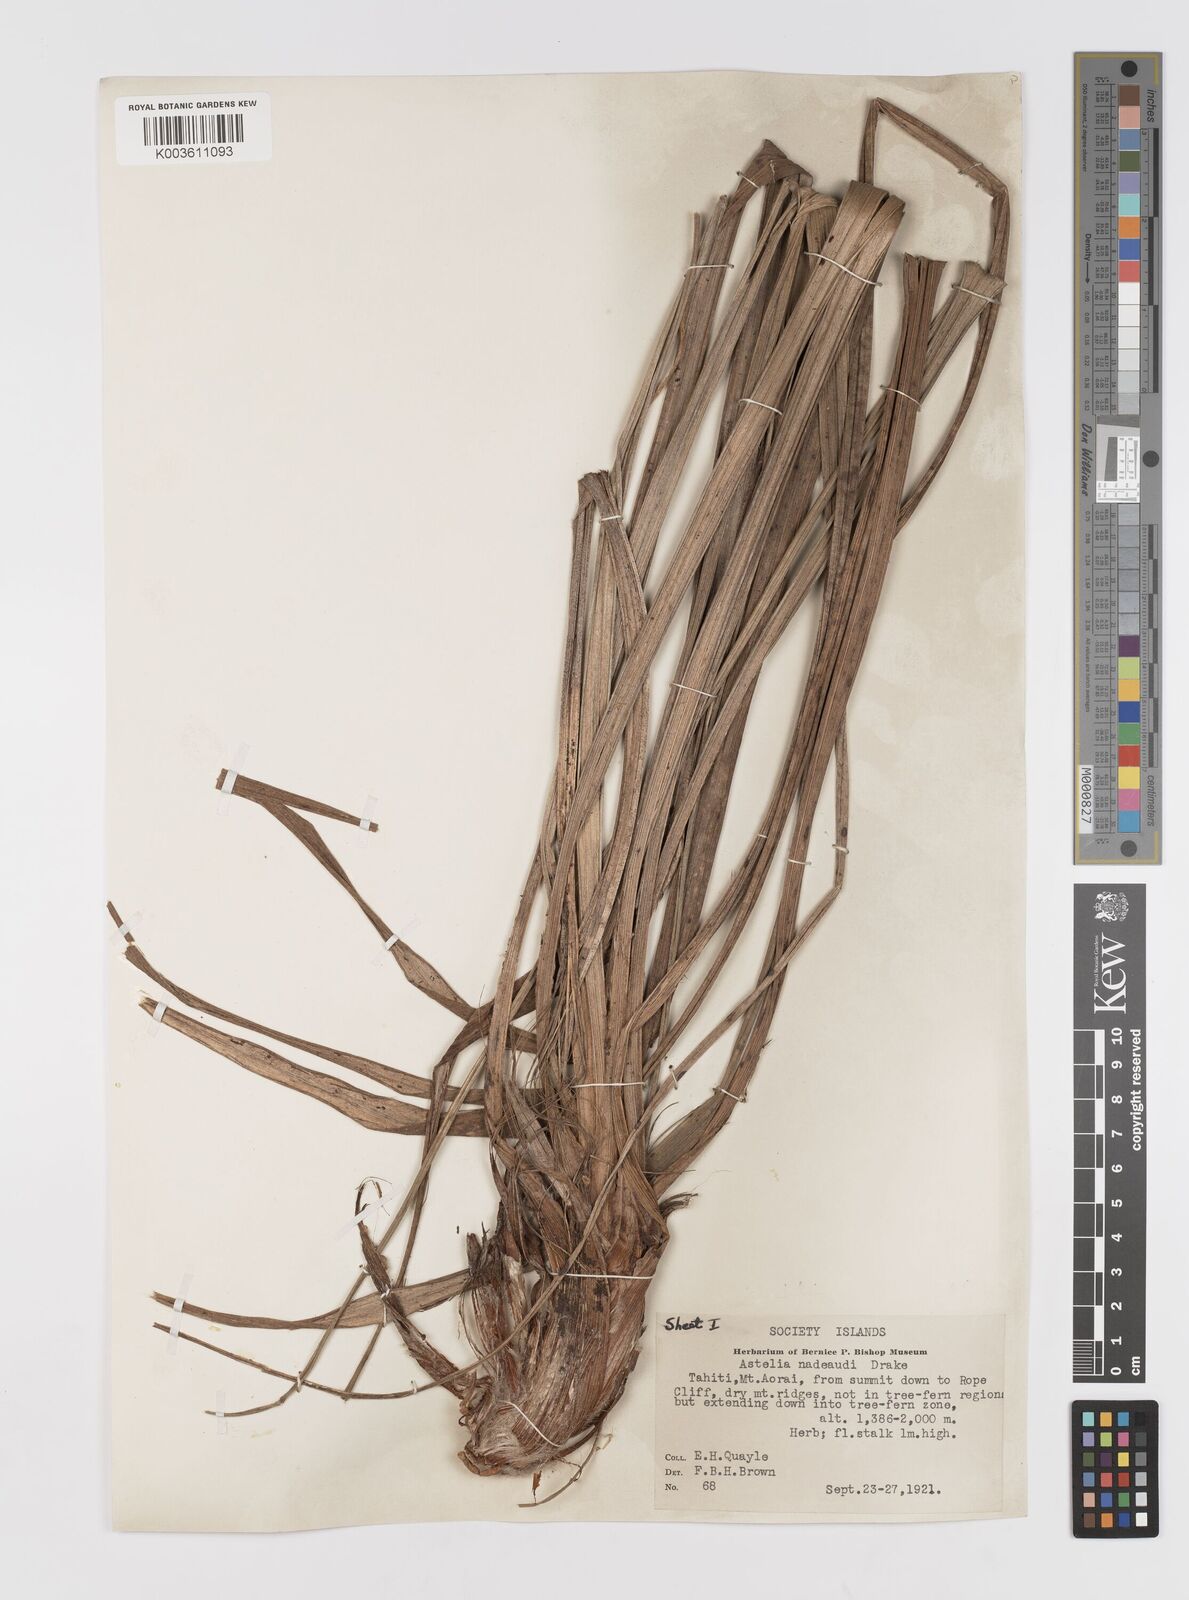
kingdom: Plantae
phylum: Tracheophyta
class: Liliopsida
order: Asparagales
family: Asteliaceae
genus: Astelia
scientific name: Astelia nadeaudii
